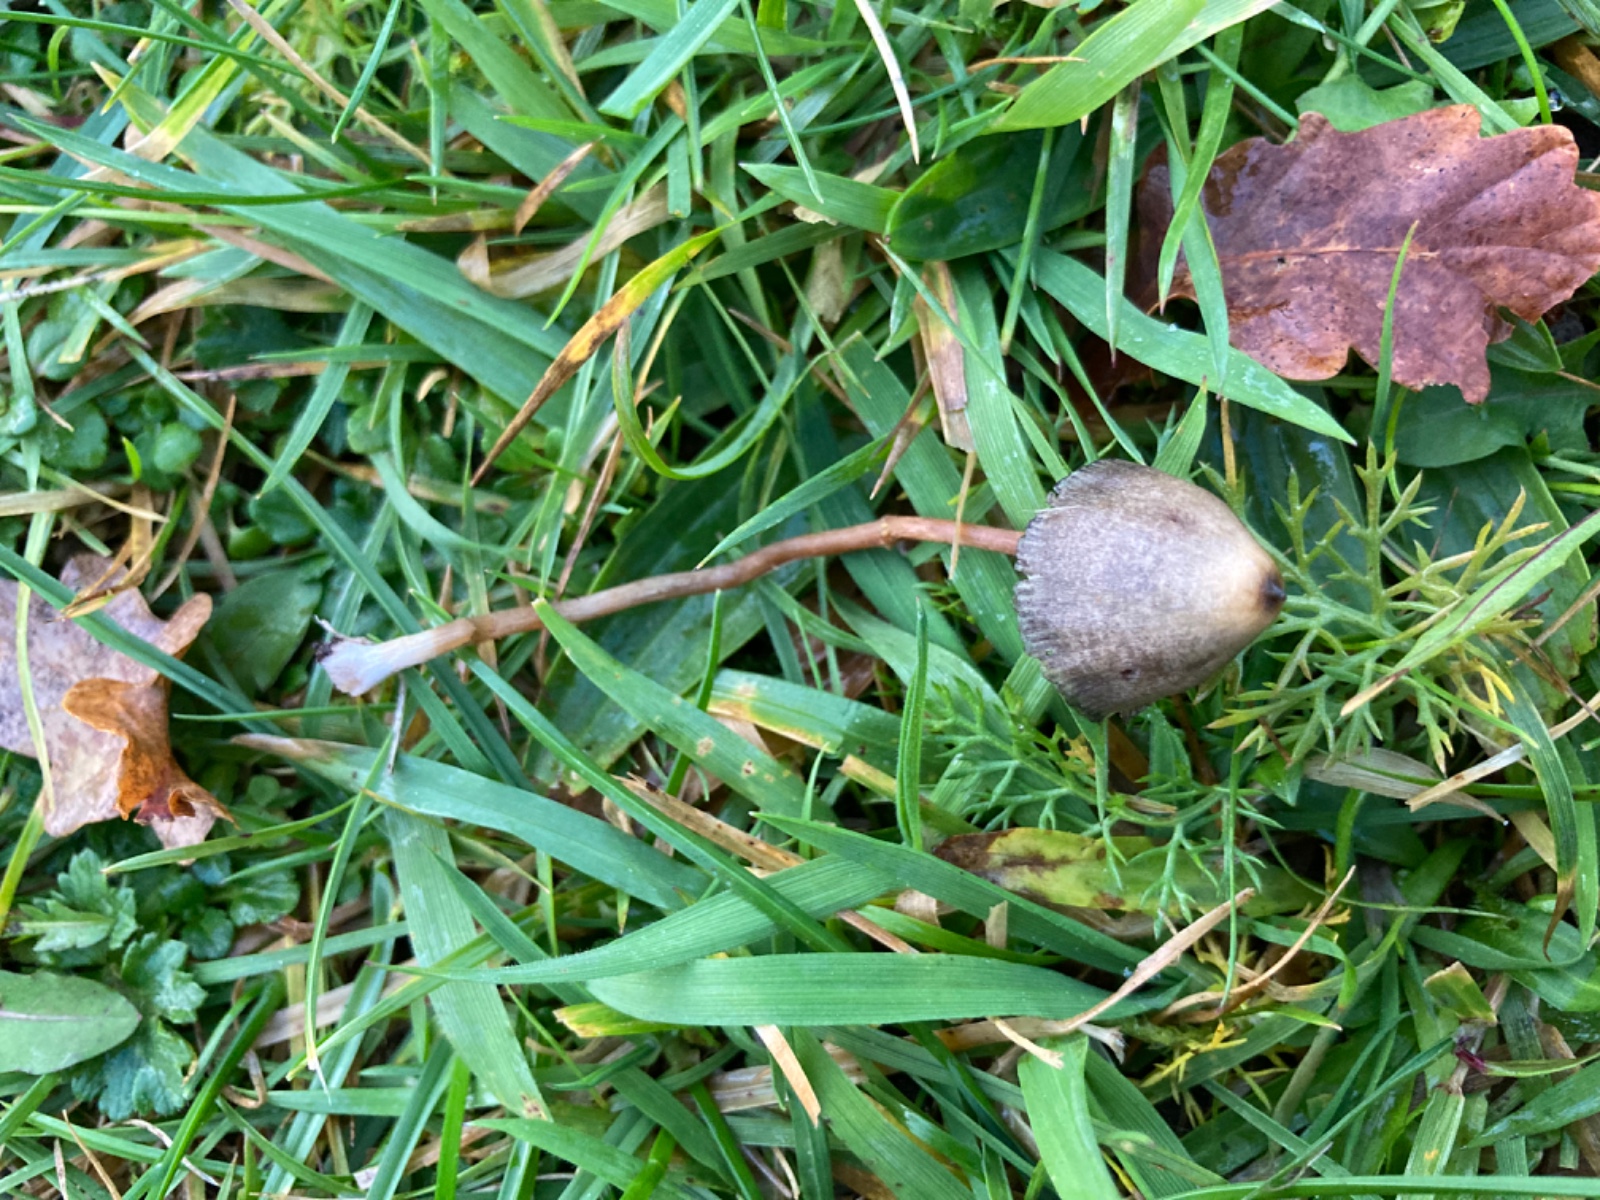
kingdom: Fungi
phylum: Basidiomycota
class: Agaricomycetes
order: Agaricales
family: Hymenogastraceae
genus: Psilocybe
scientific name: Psilocybe semilanceata
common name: spids nøgenhat
